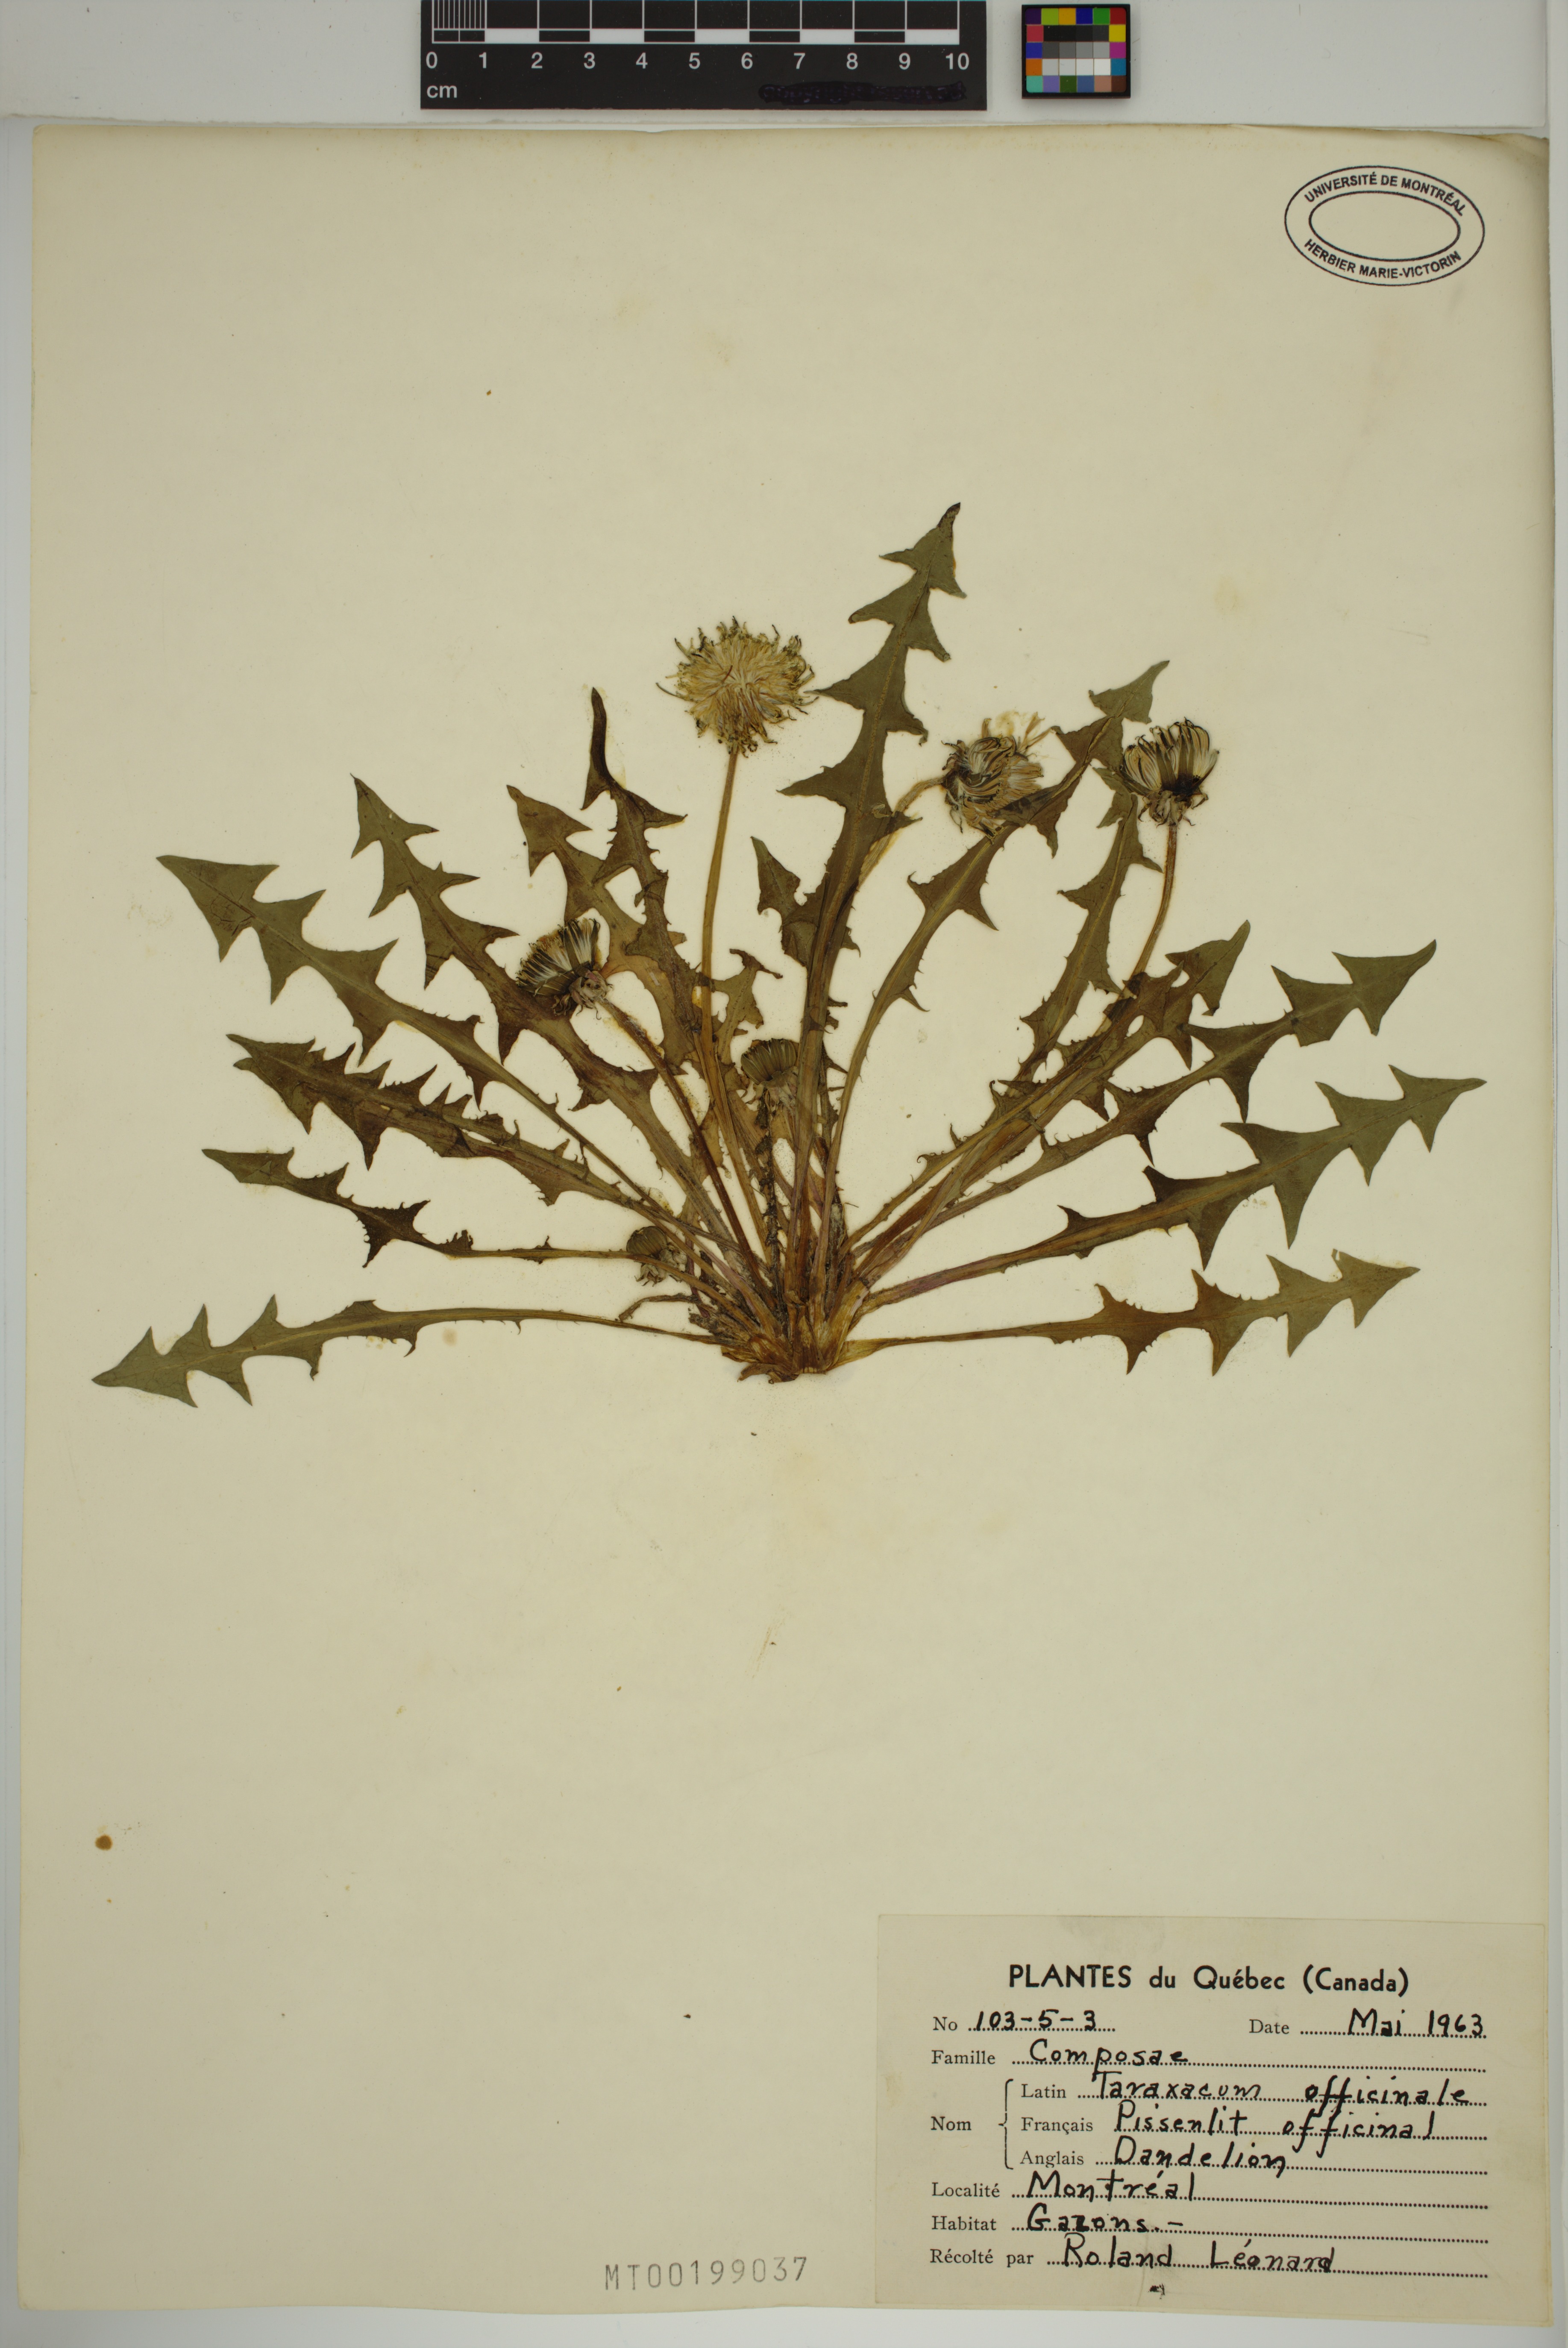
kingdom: Plantae
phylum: Tracheophyta
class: Magnoliopsida
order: Asterales
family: Asteraceae
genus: Taraxacum
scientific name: Taraxacum officinale
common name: Common dandelion
